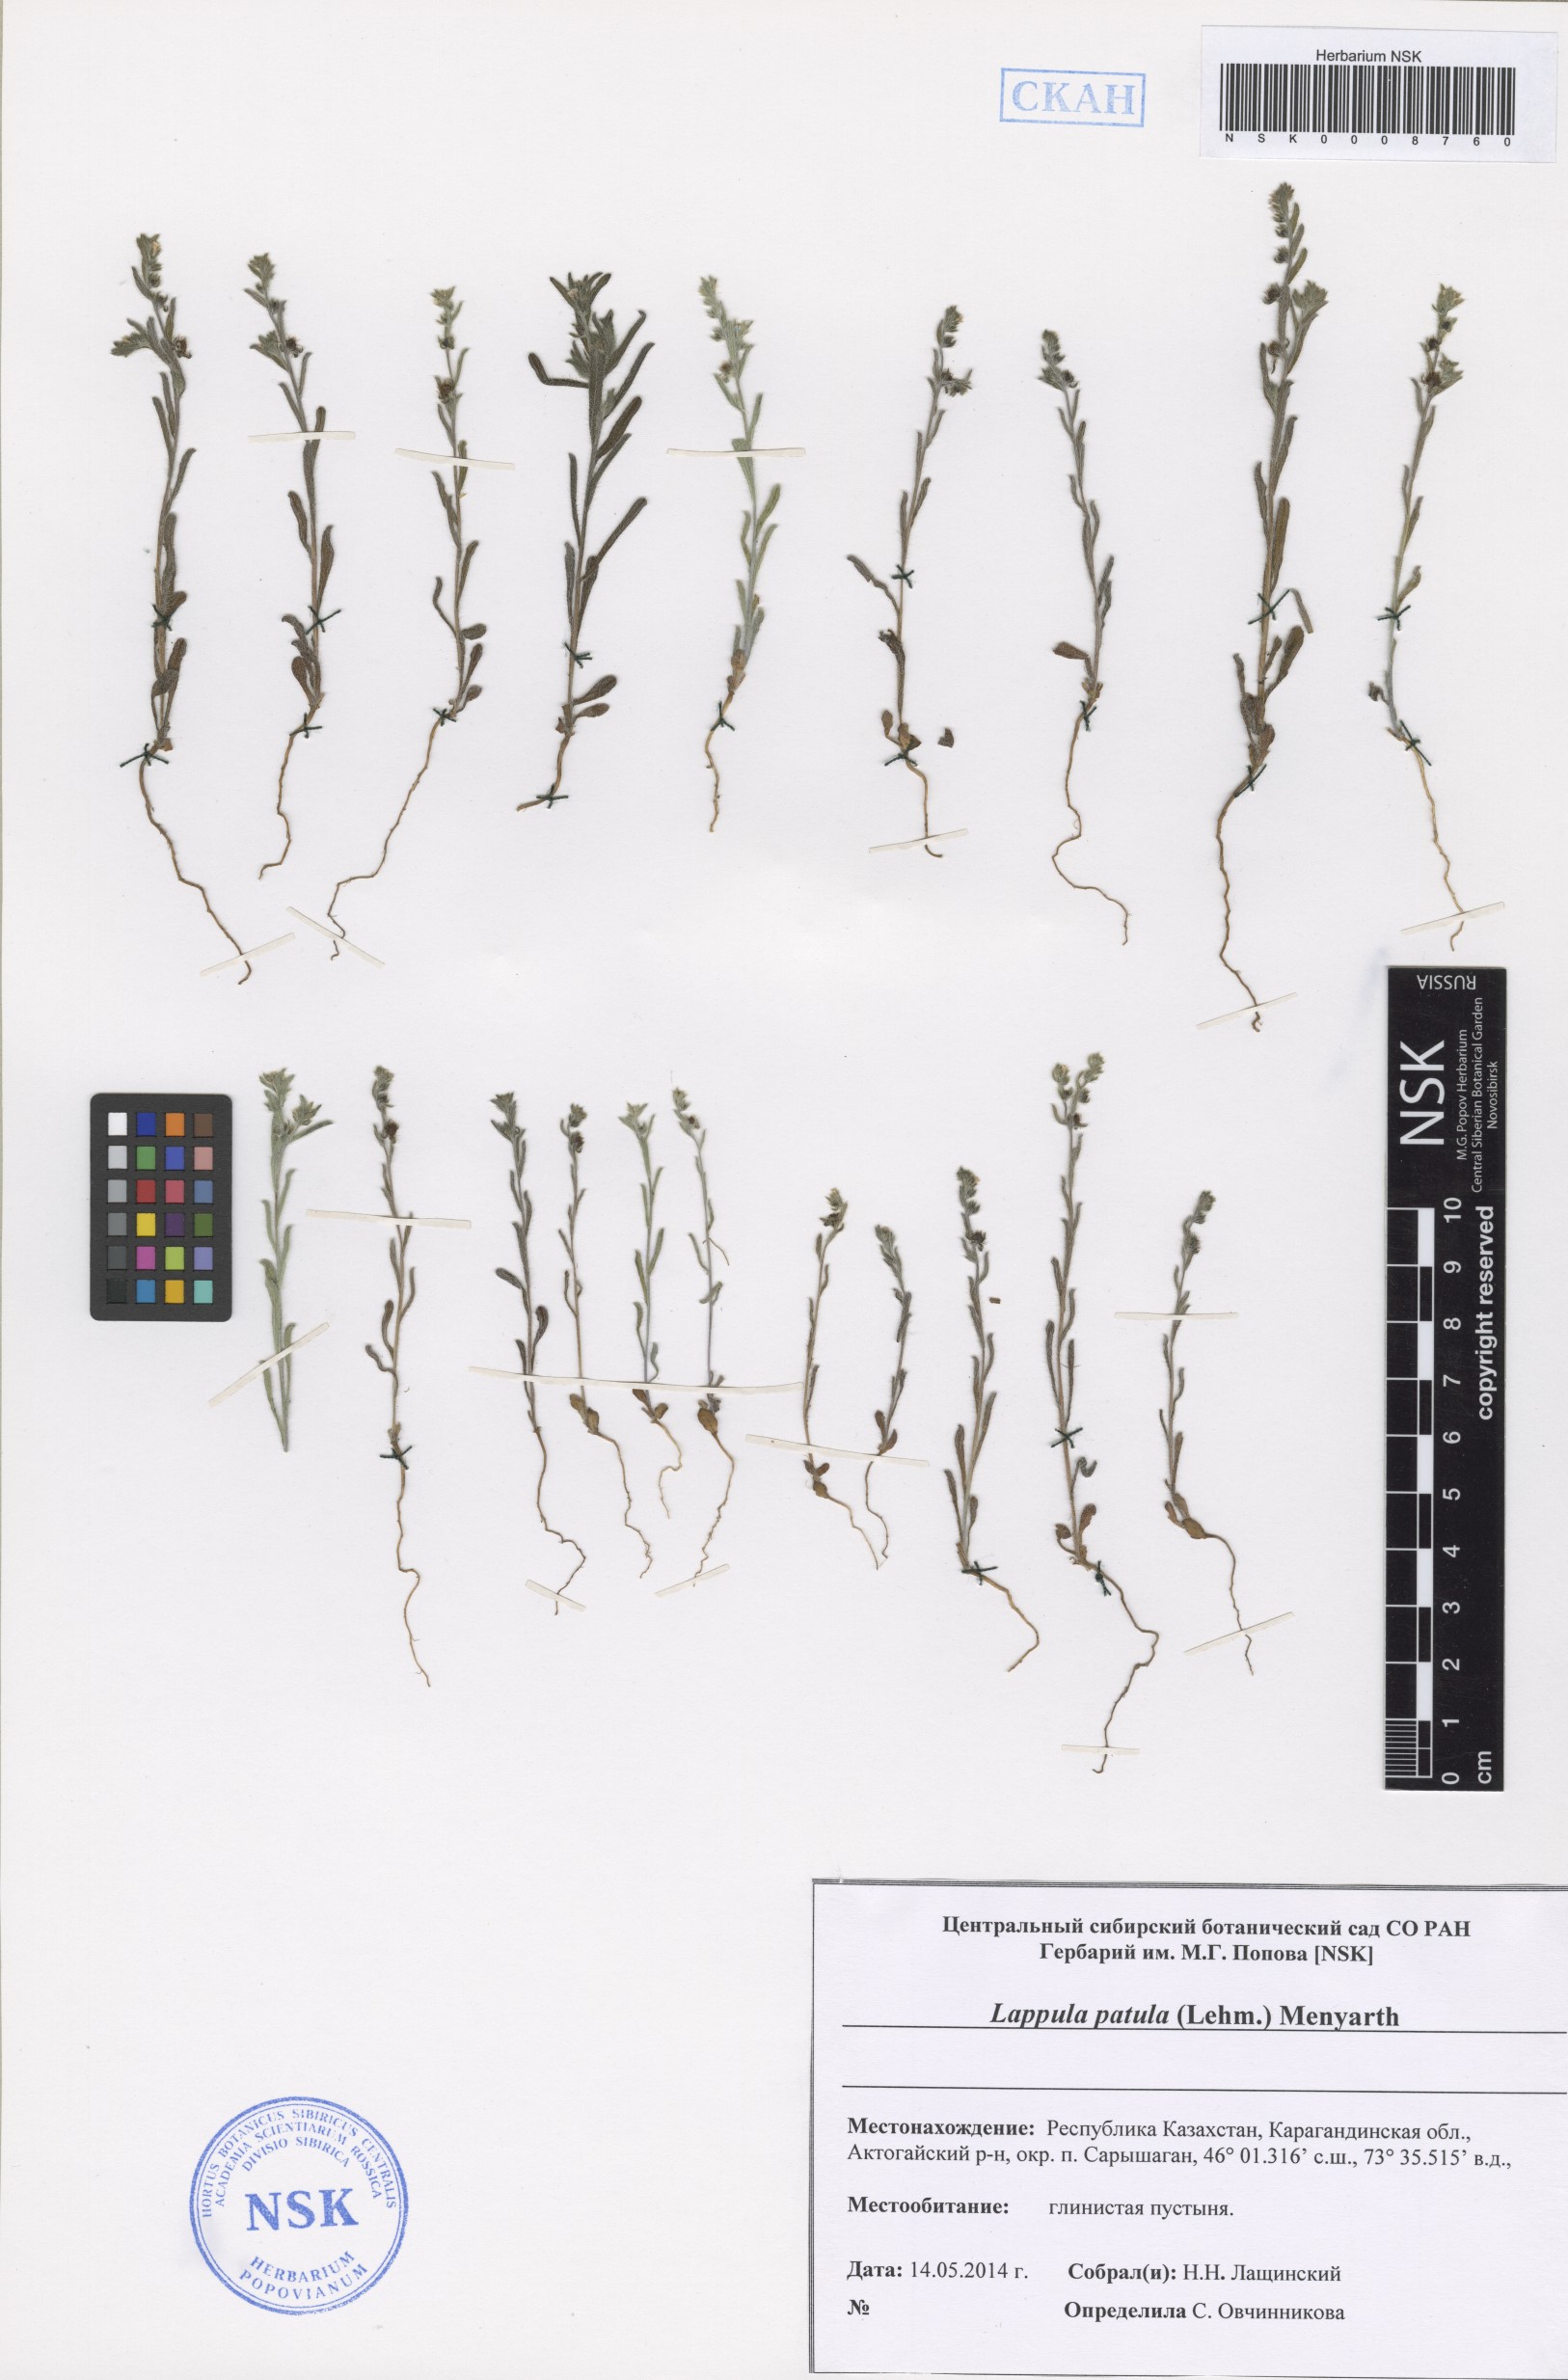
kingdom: Plantae
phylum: Tracheophyta
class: Magnoliopsida
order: Boraginales
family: Boraginaceae
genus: Lappula
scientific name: Lappula patula
